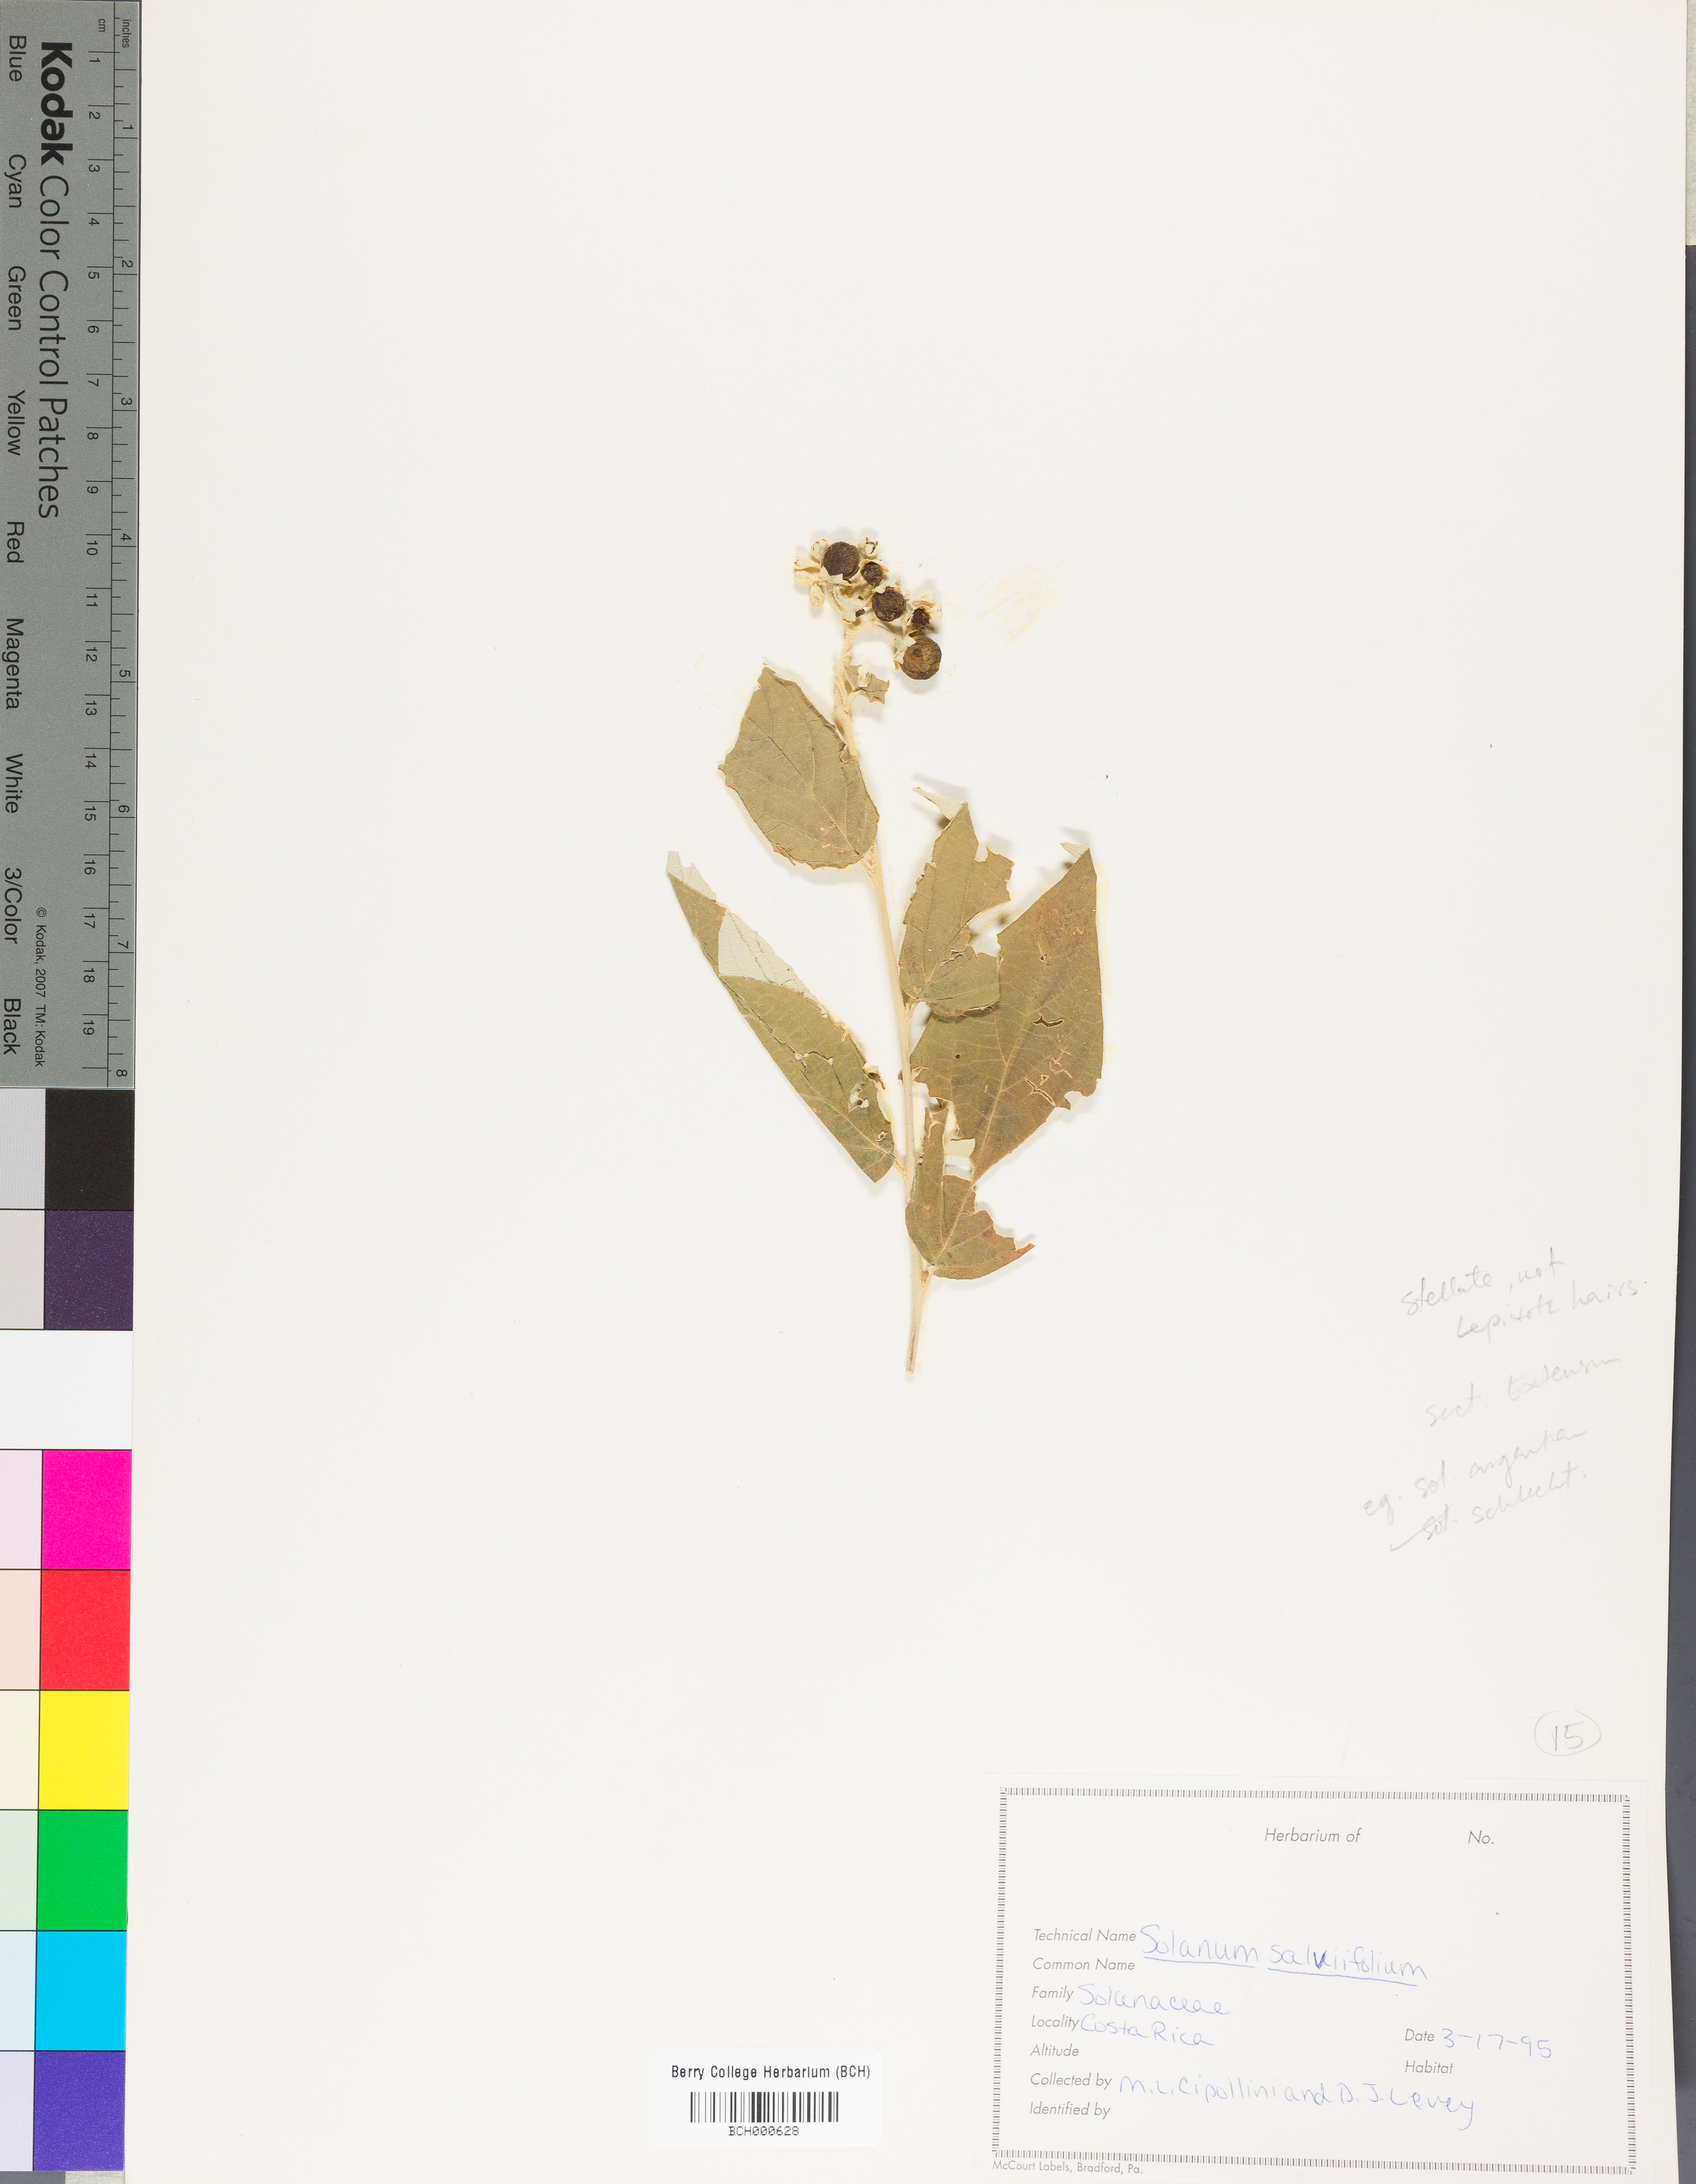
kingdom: Plantae
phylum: Tracheophyta
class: Magnoliopsida
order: Solanales
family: Solanaceae
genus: Solanum
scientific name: Solanum gardneri
